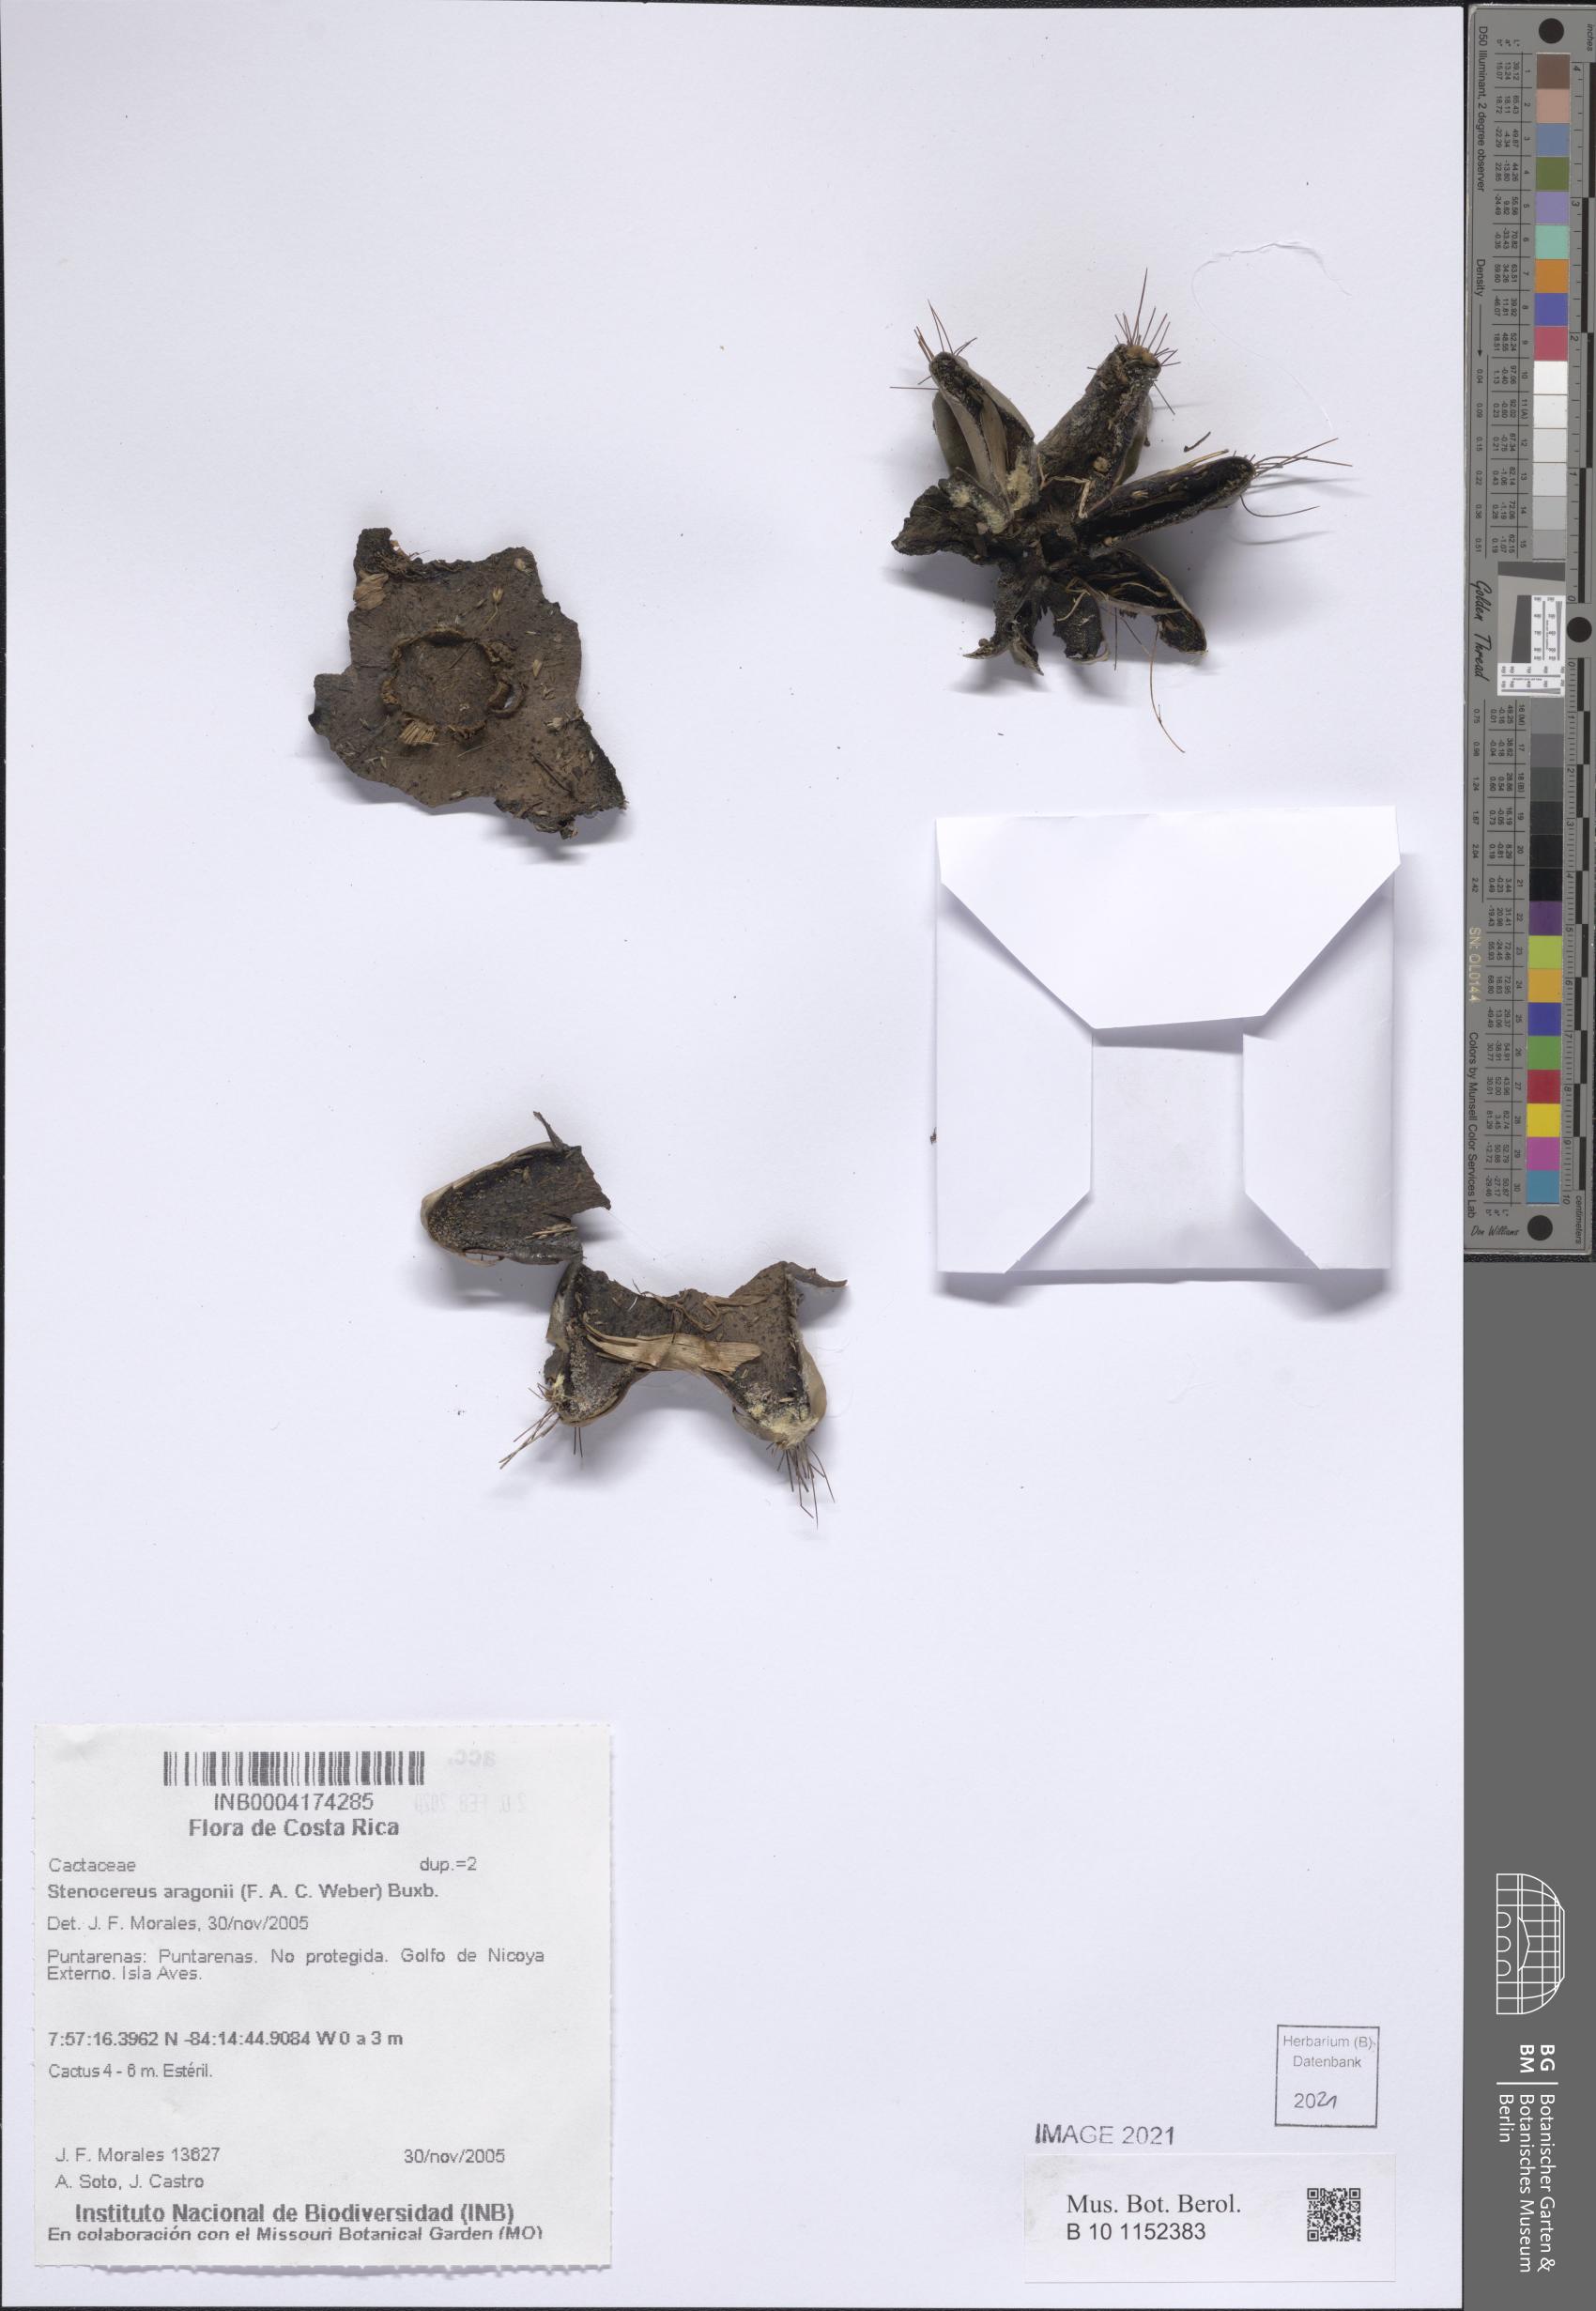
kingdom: Plantae
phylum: Tracheophyta
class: Magnoliopsida
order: Caryophyllales
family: Cactaceae
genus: Stenocereus
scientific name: Stenocereus aragonii
